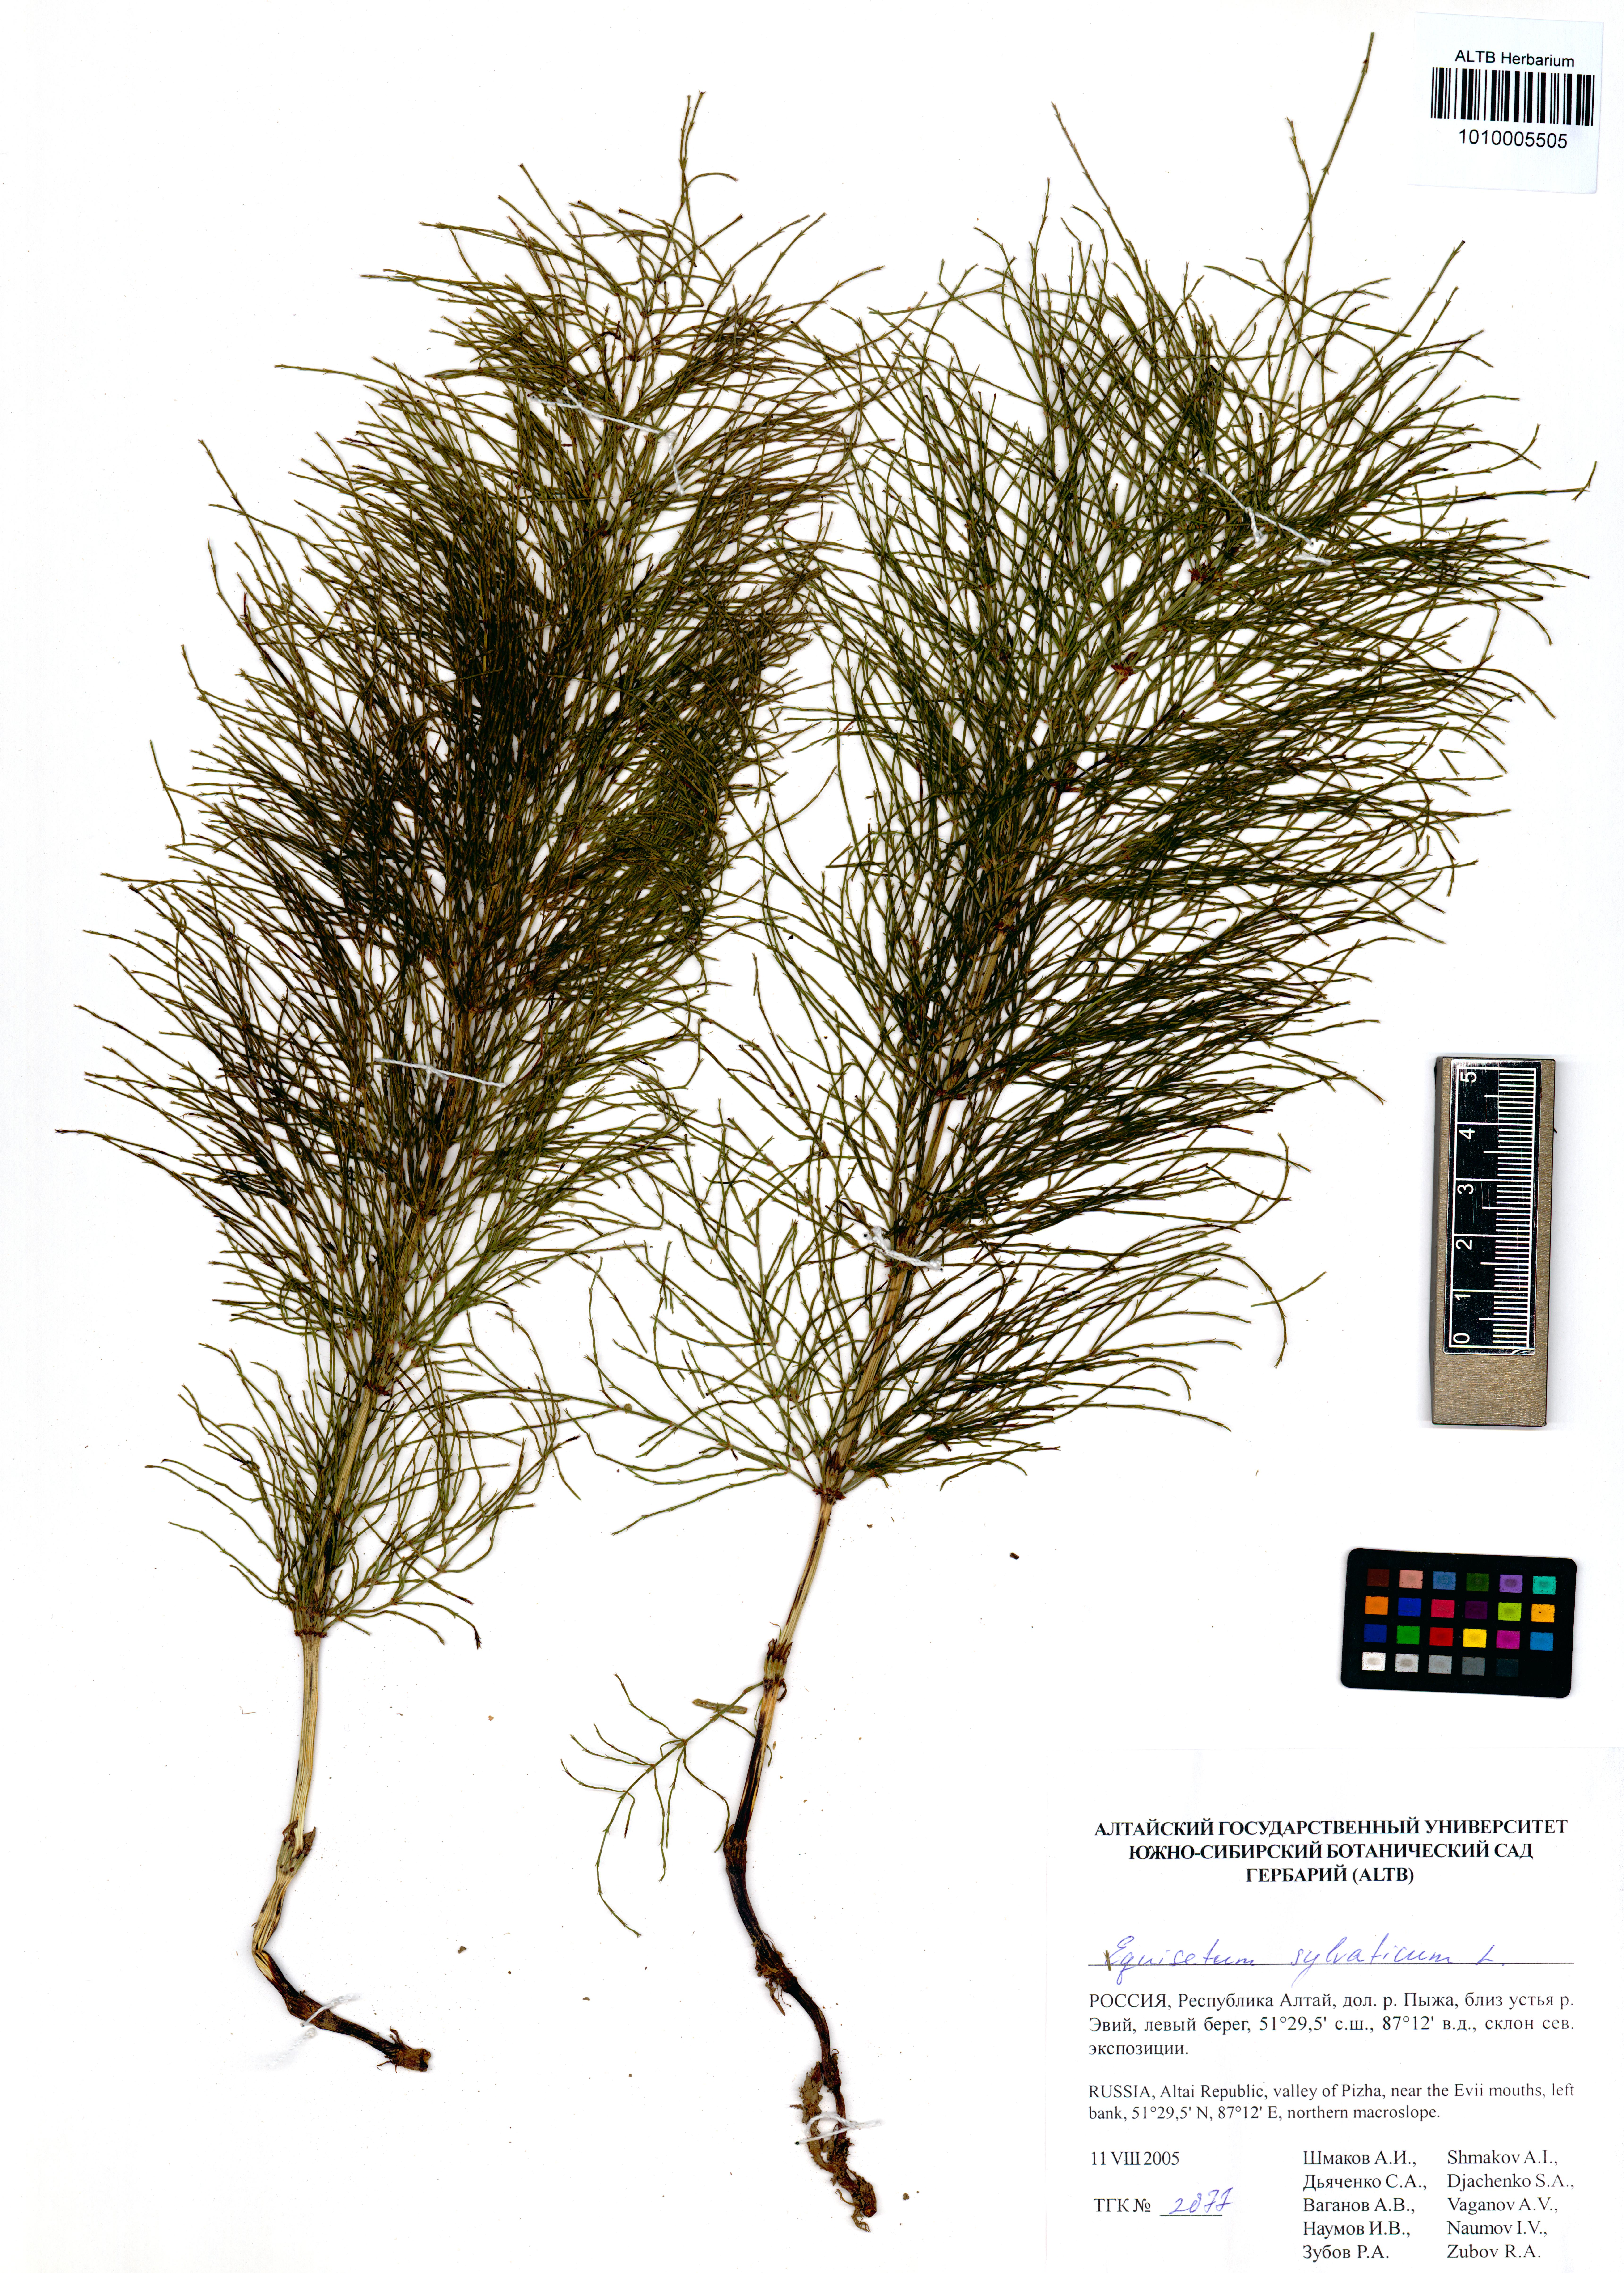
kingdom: Plantae
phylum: Tracheophyta
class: Polypodiopsida
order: Equisetales
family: Equisetaceae
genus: Equisetum
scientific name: Equisetum sylvaticum
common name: Wood horsetail
